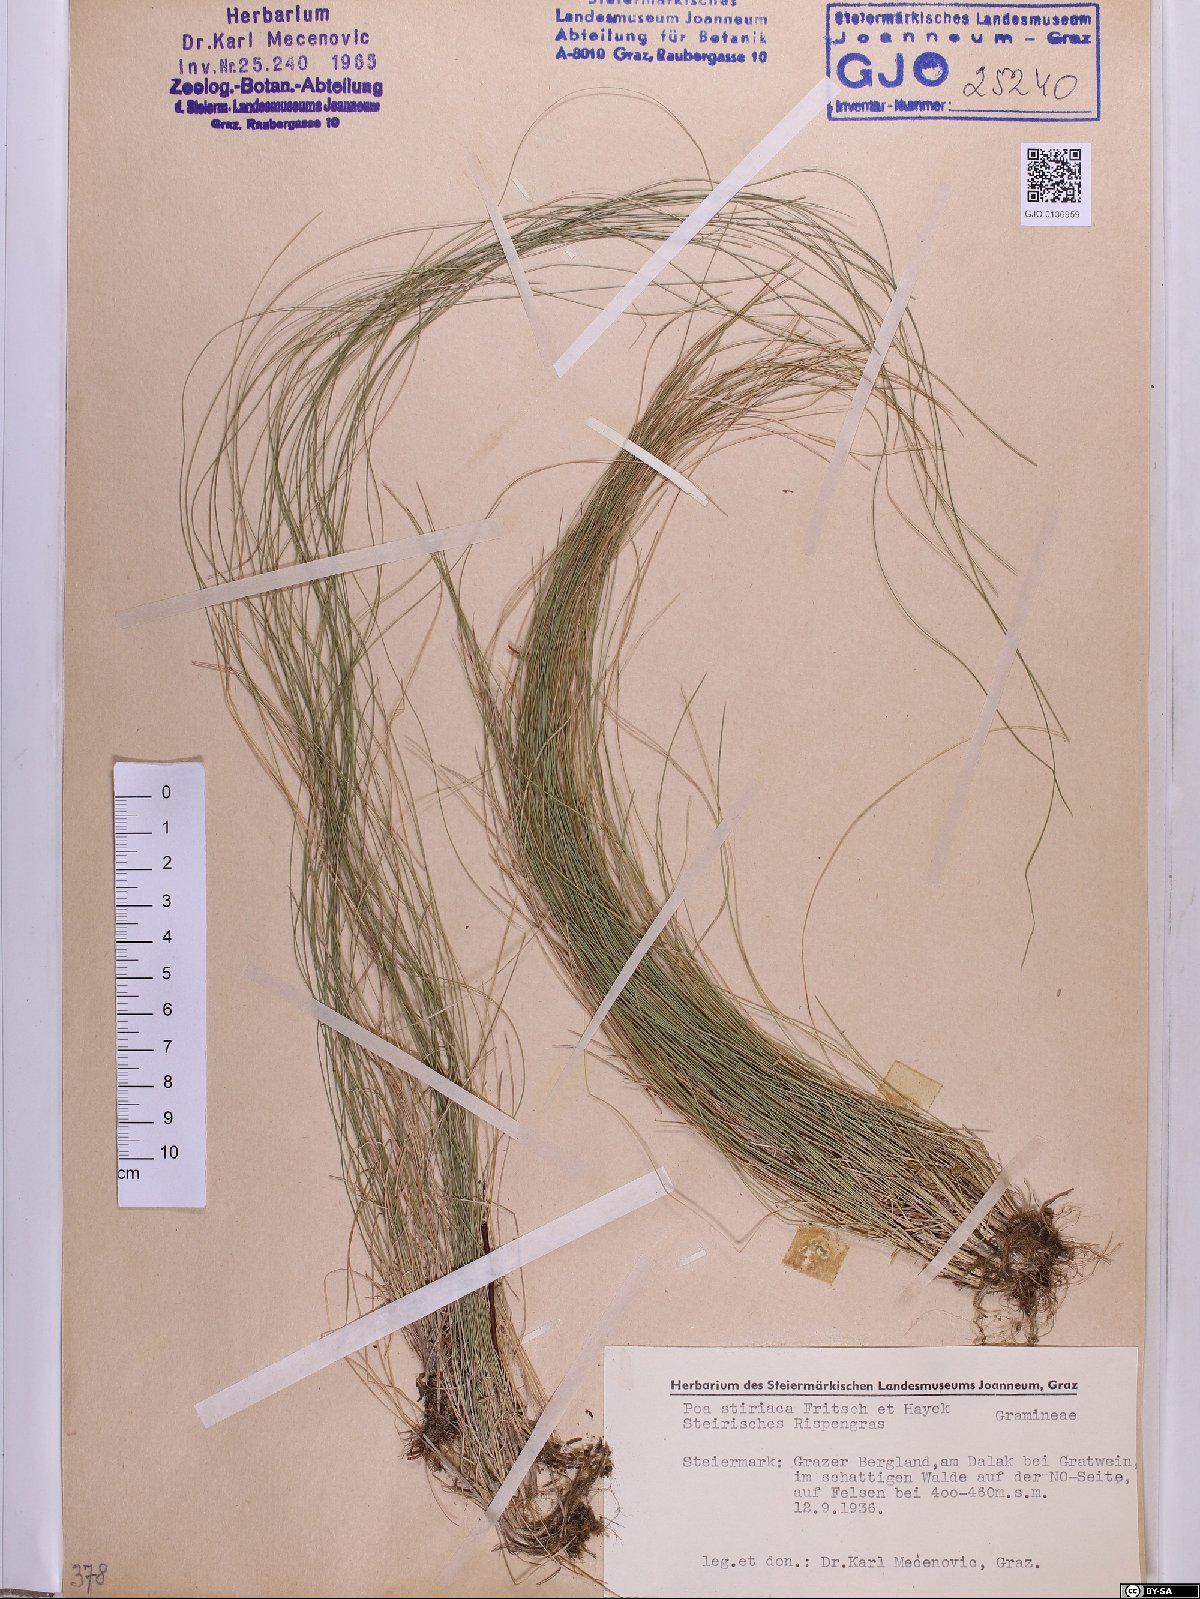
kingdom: Plantae
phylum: Tracheophyta
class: Liliopsida
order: Poales
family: Poaceae
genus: Poa
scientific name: Poa stiriaca
